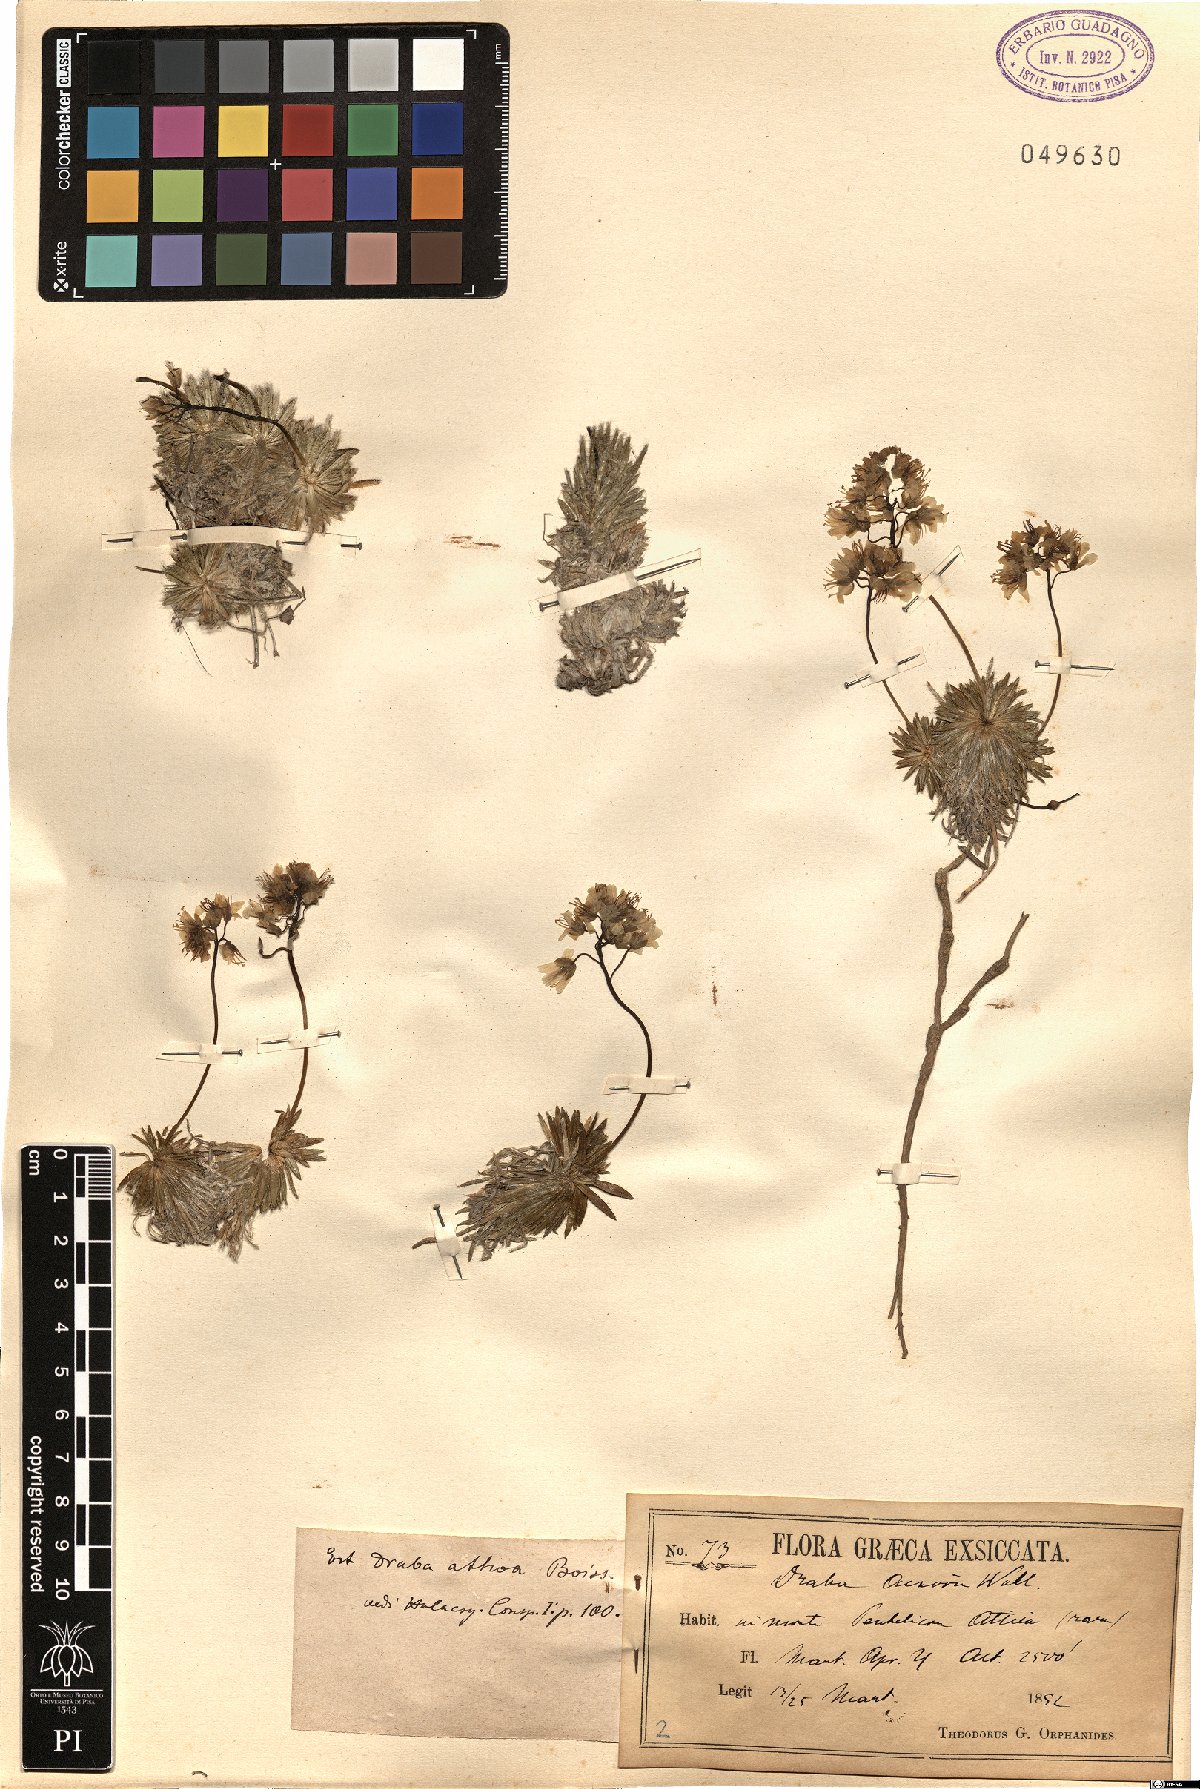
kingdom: Plantae
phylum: Tracheophyta
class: Magnoliopsida
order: Brassicales
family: Brassicaceae
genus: Draba
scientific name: Draba lasiocarpa
